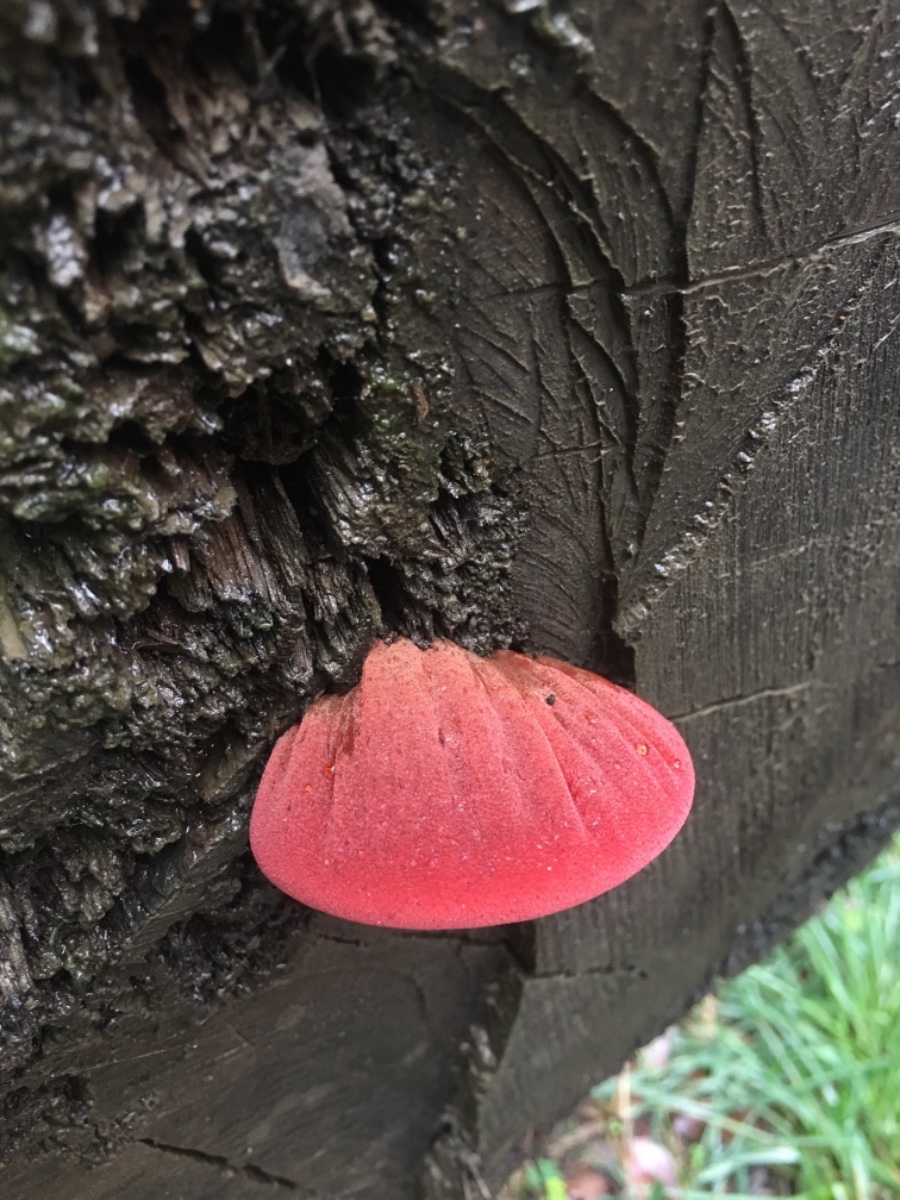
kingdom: Fungi
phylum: Basidiomycota
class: Agaricomycetes
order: Agaricales
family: Fistulinaceae
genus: Fistulina
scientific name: Fistulina
